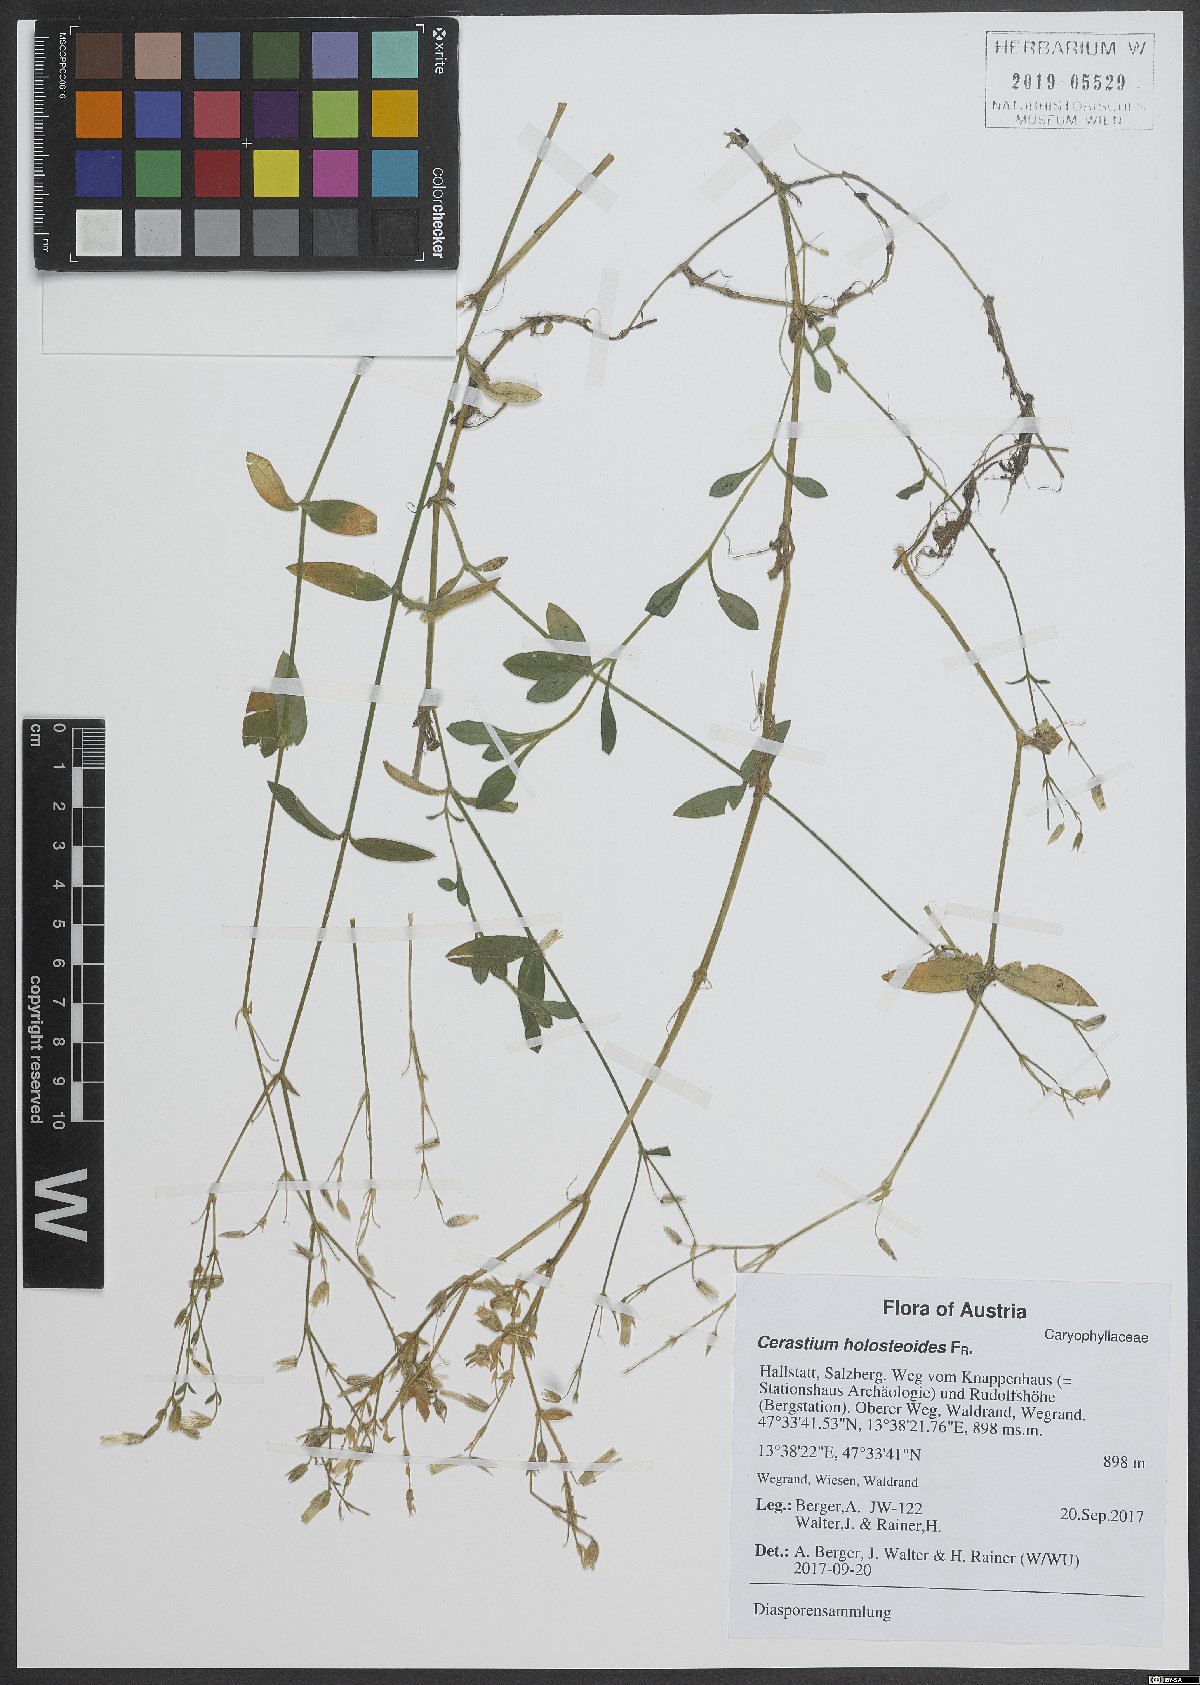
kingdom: Plantae
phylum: Tracheophyta
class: Magnoliopsida
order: Caryophyllales
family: Caryophyllaceae
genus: Cerastium
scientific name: Cerastium holosteoides
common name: Big chickweed
